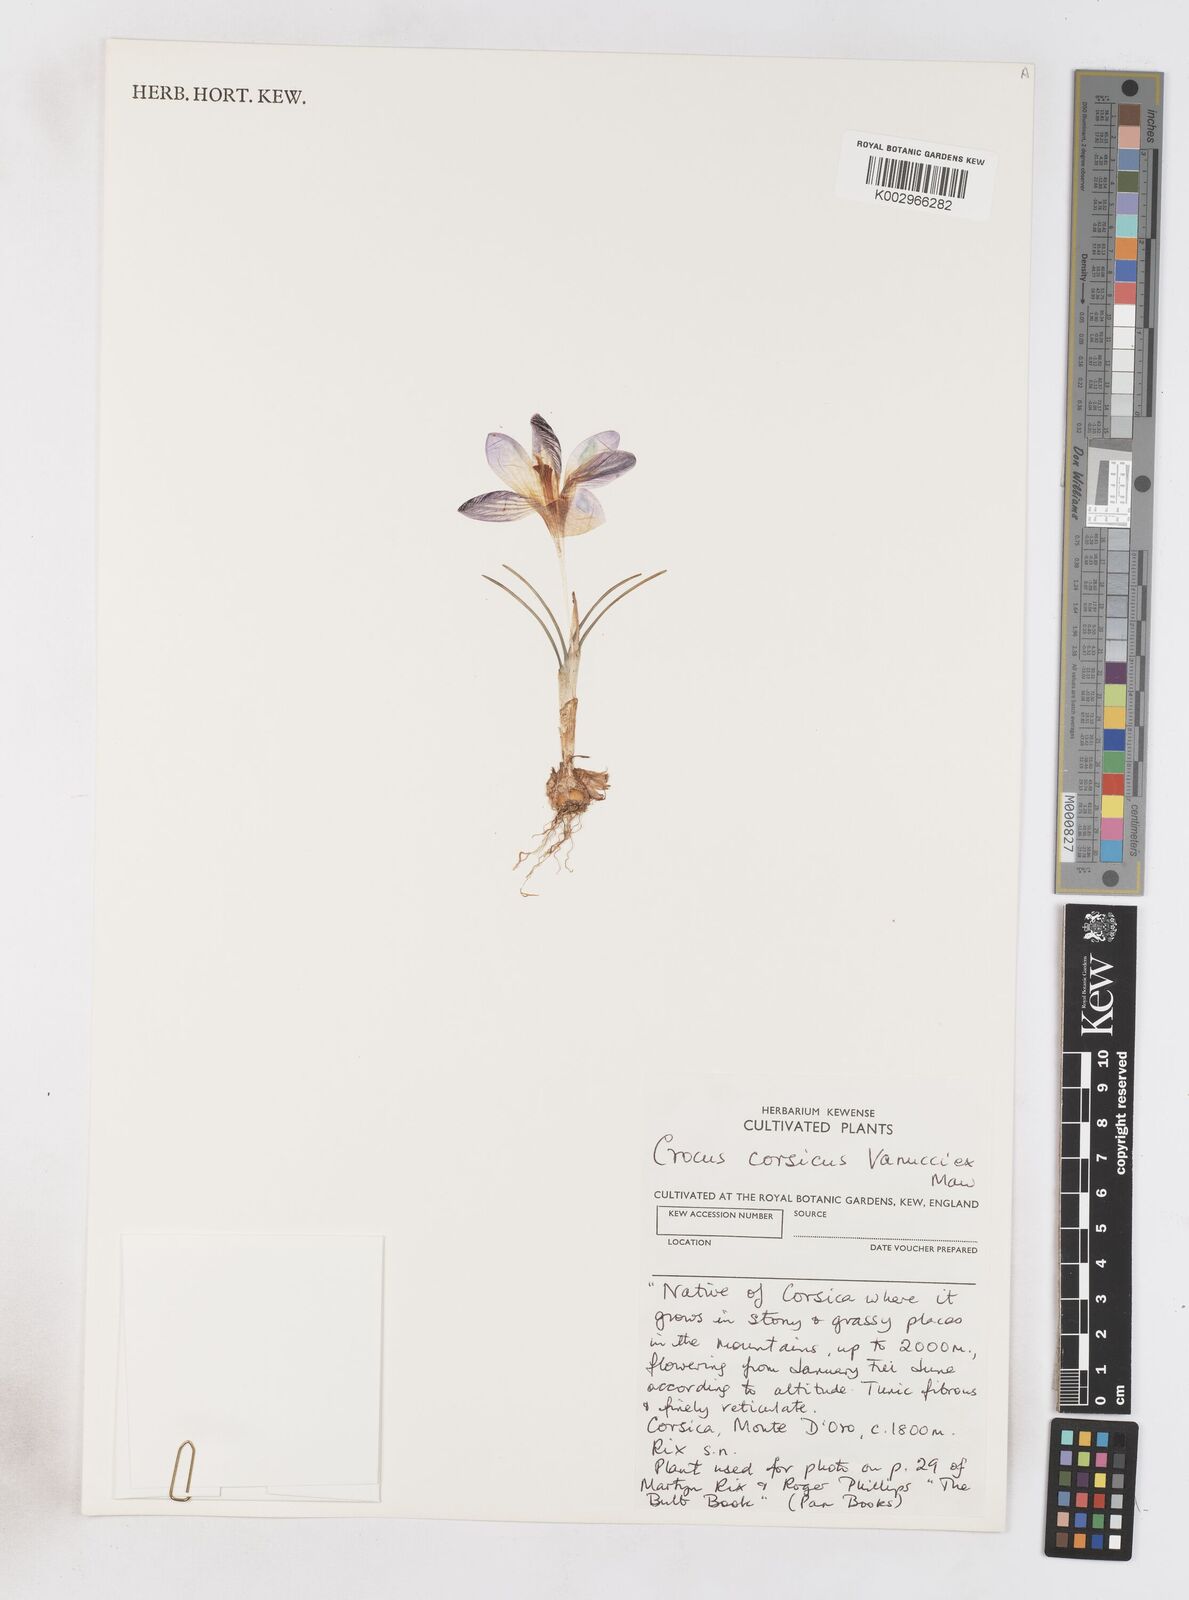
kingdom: Plantae
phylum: Tracheophyta
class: Liliopsida
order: Asparagales
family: Iridaceae
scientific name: Iridaceae
